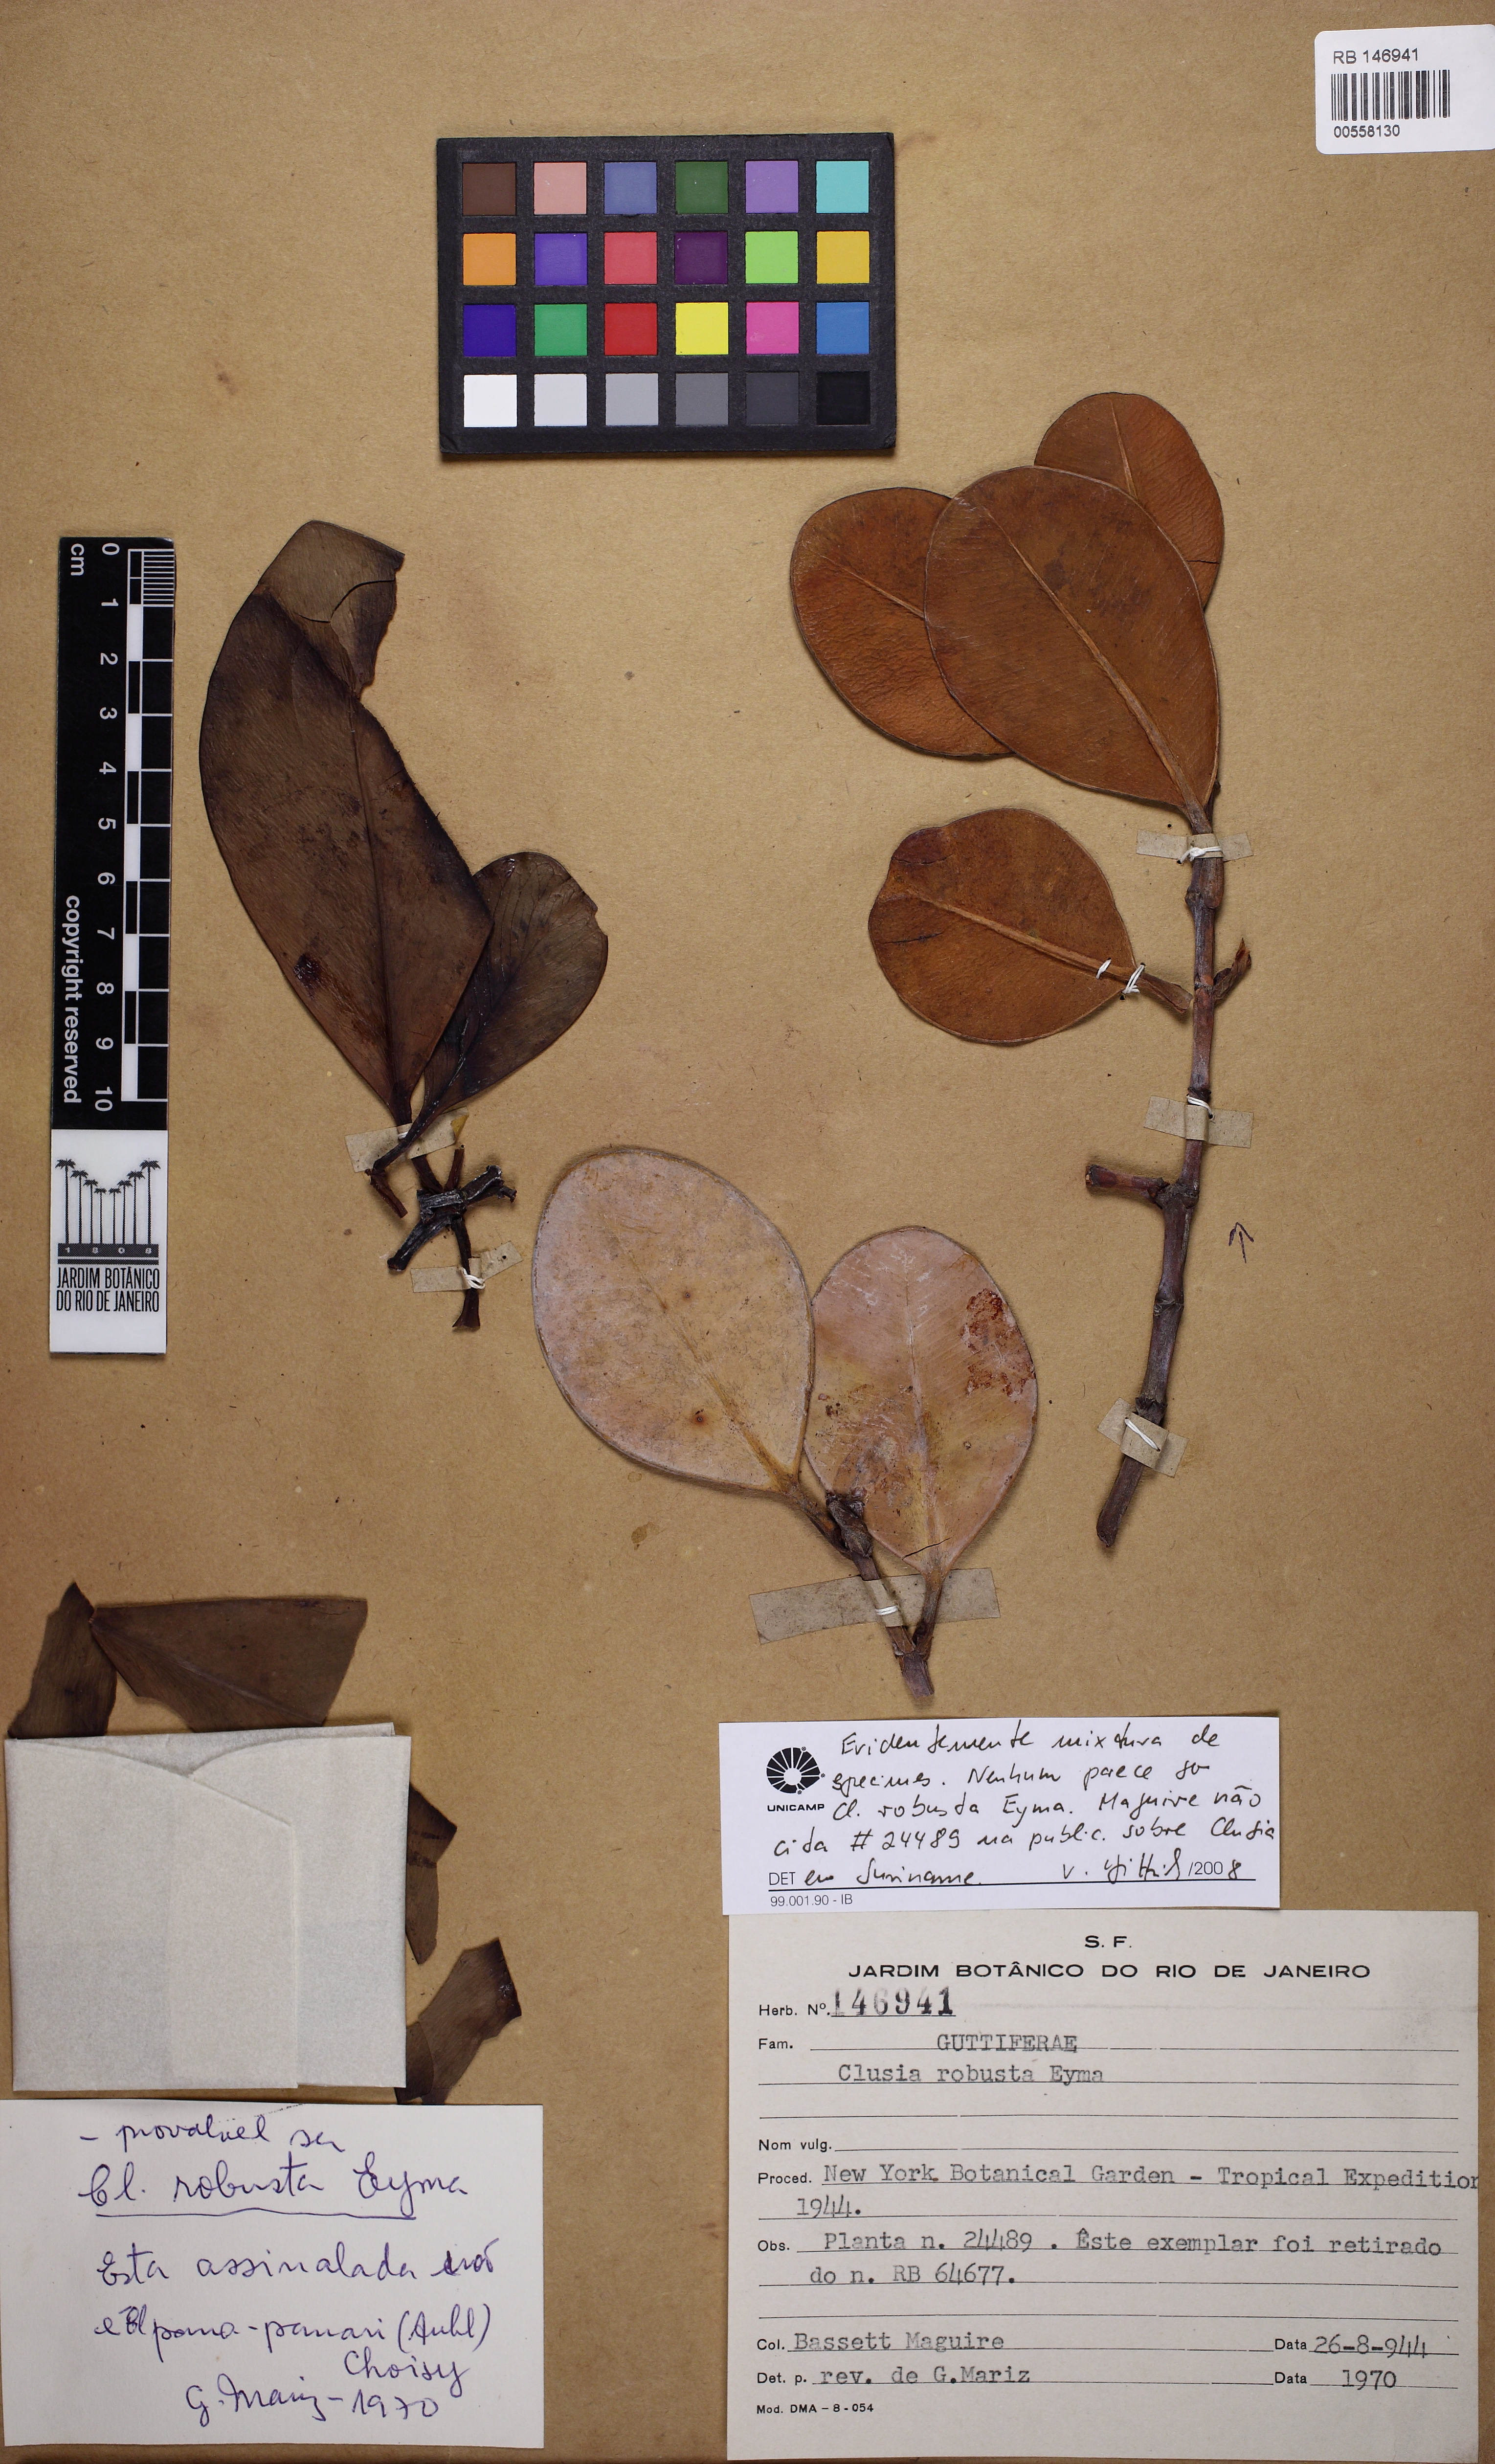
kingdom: Plantae
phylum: Tracheophyta
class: Magnoliopsida
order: Malpighiales
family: Clusiaceae
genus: Clusia
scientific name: Clusia hexacarpa
